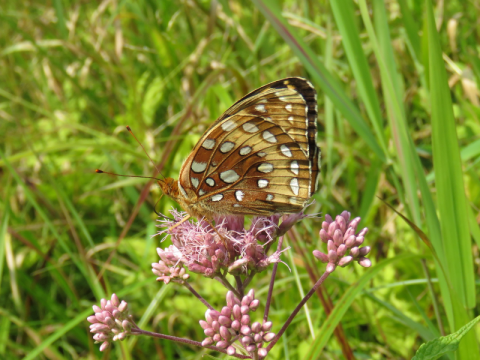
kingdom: Animalia
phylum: Arthropoda
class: Insecta
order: Lepidoptera
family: Nymphalidae
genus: Speyeria
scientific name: Speyeria cybele
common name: Great Spangled Fritillary
